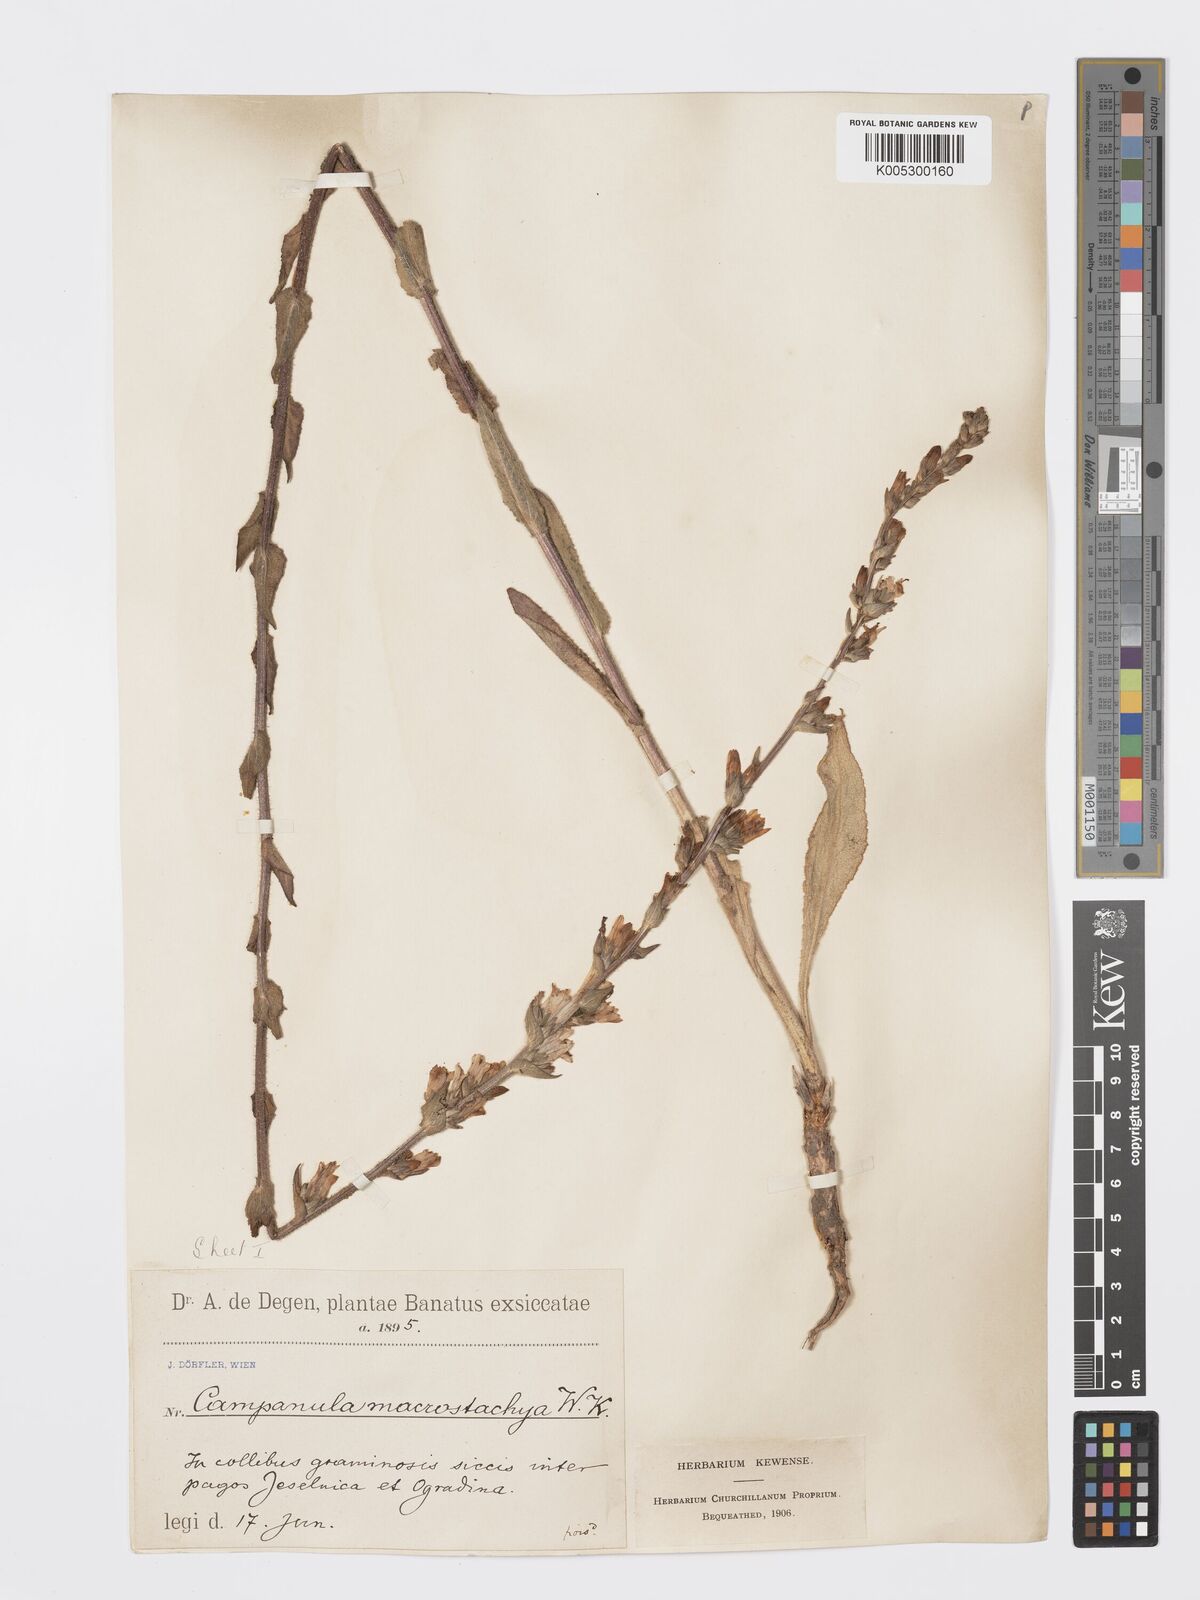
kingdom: Plantae
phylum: Tracheophyta
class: Magnoliopsida
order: Asterales
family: Campanulaceae
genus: Campanula
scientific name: Campanula
